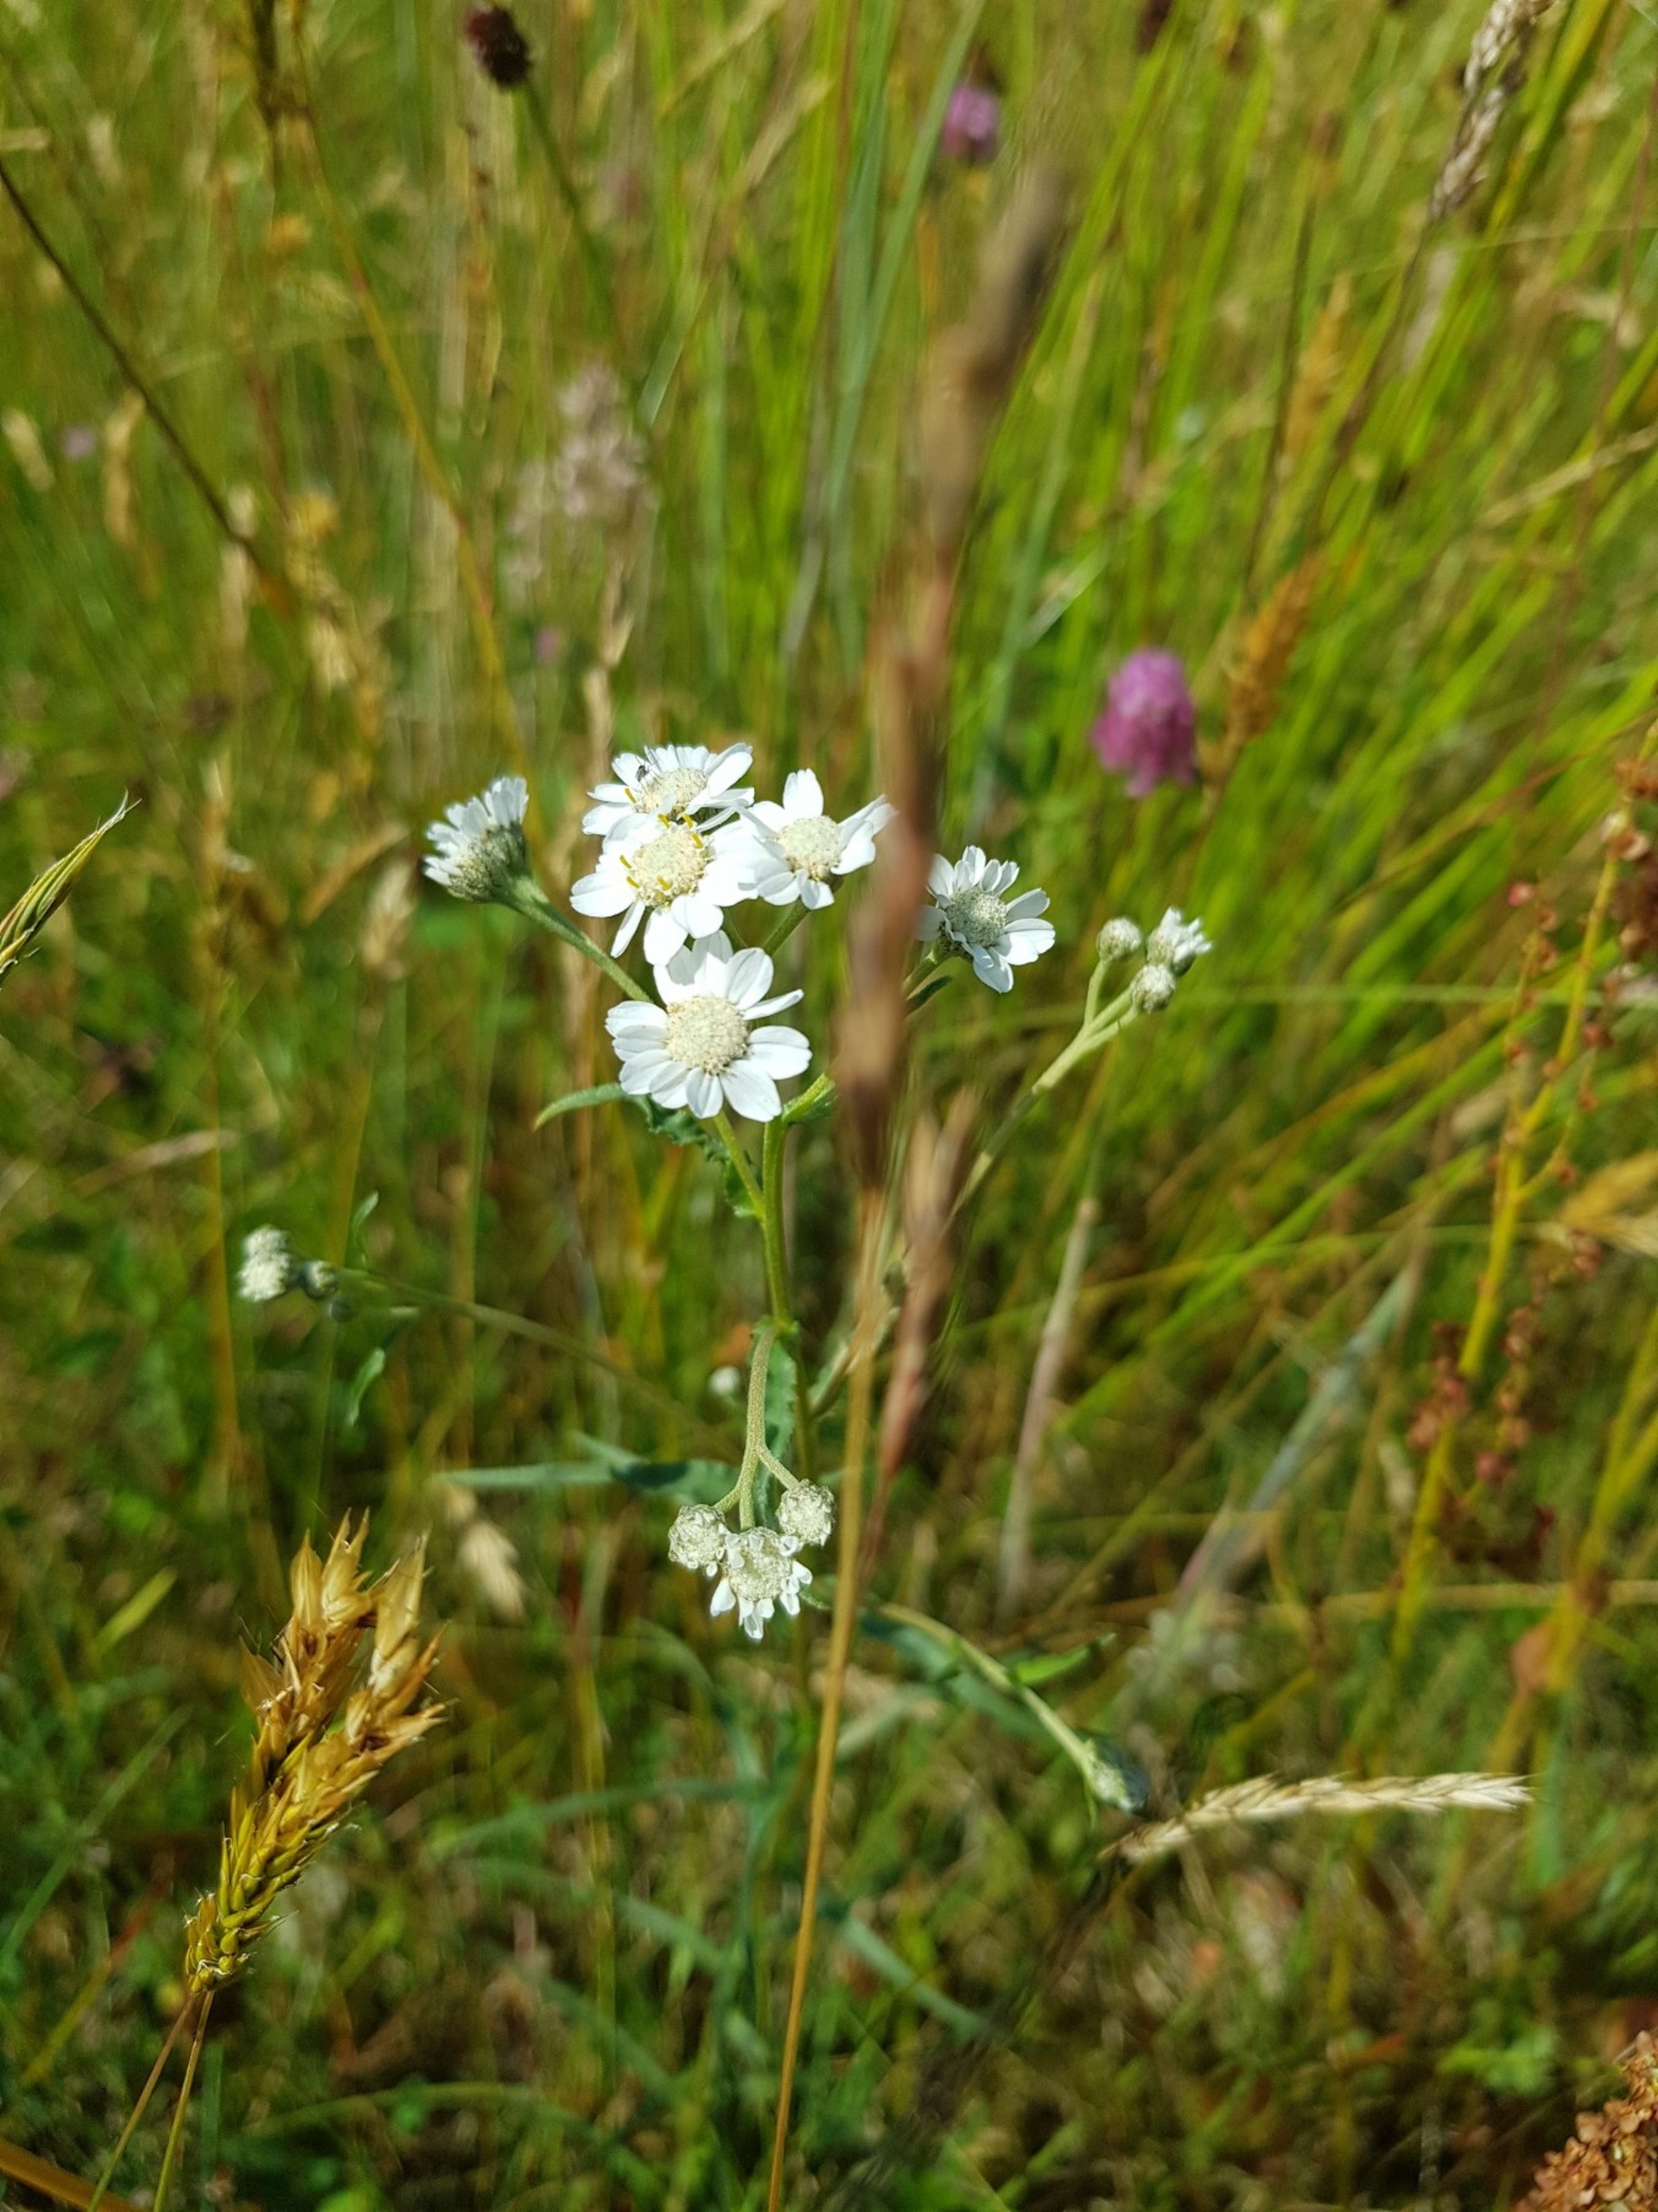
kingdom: Plantae
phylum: Tracheophyta
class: Magnoliopsida
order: Asterales
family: Asteraceae
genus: Achillea
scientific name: Achillea ptarmica
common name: Nyse-røllike
